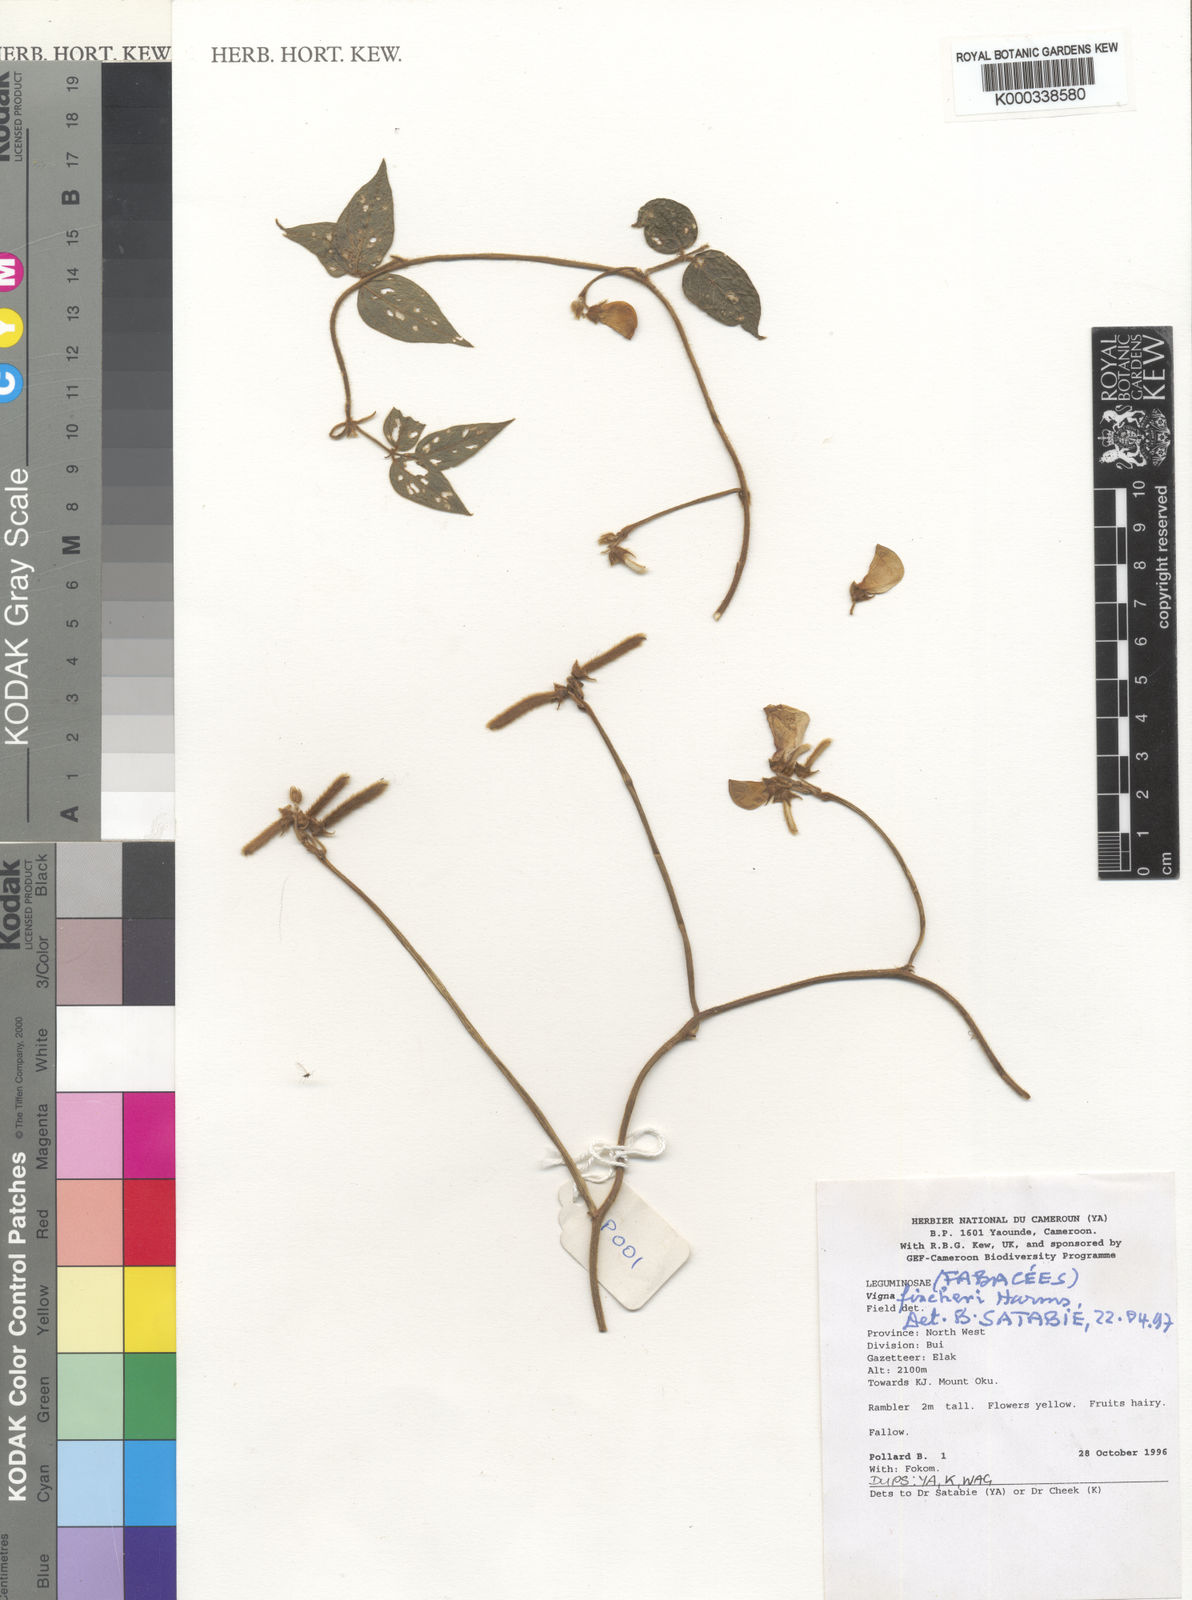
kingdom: Plantae
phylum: Tracheophyta
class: Magnoliopsida
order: Fabales
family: Fabaceae
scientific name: Fabaceae
